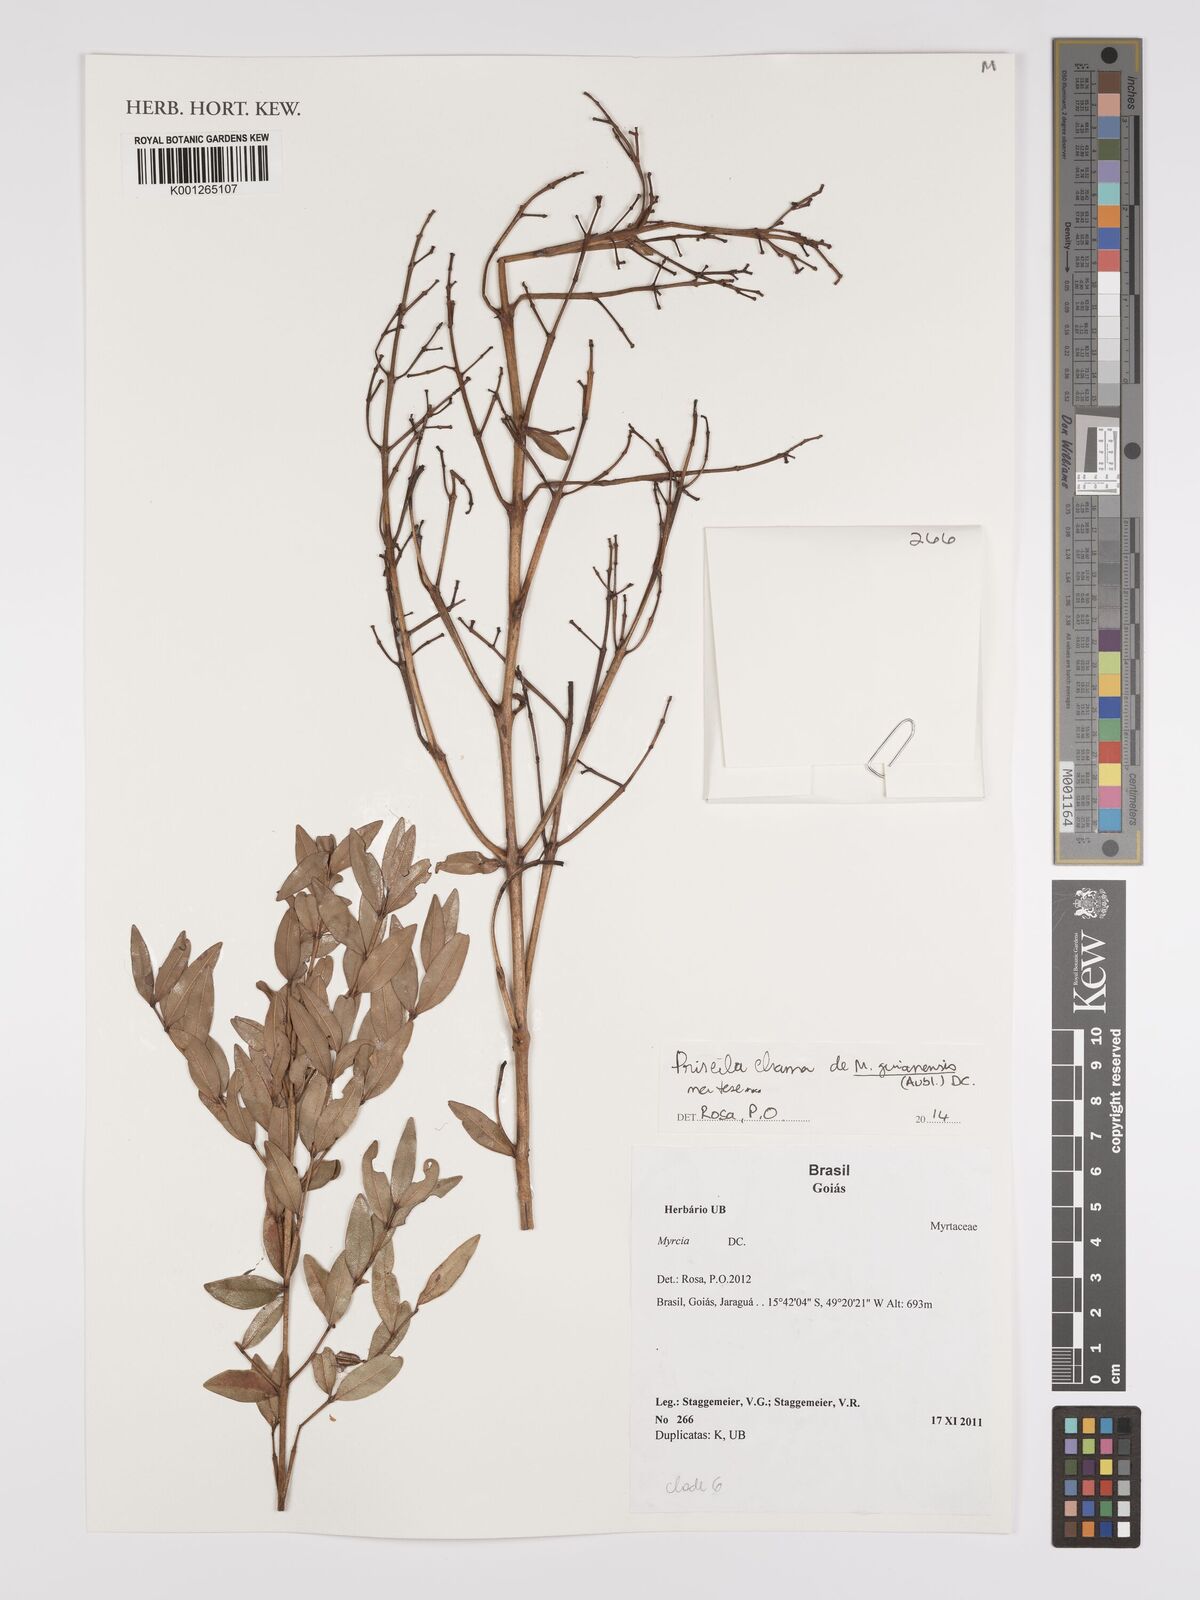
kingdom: Plantae
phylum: Tracheophyta
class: Magnoliopsida
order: Myrtales
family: Myrtaceae
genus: Myrcia
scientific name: Myrcia guianensis
